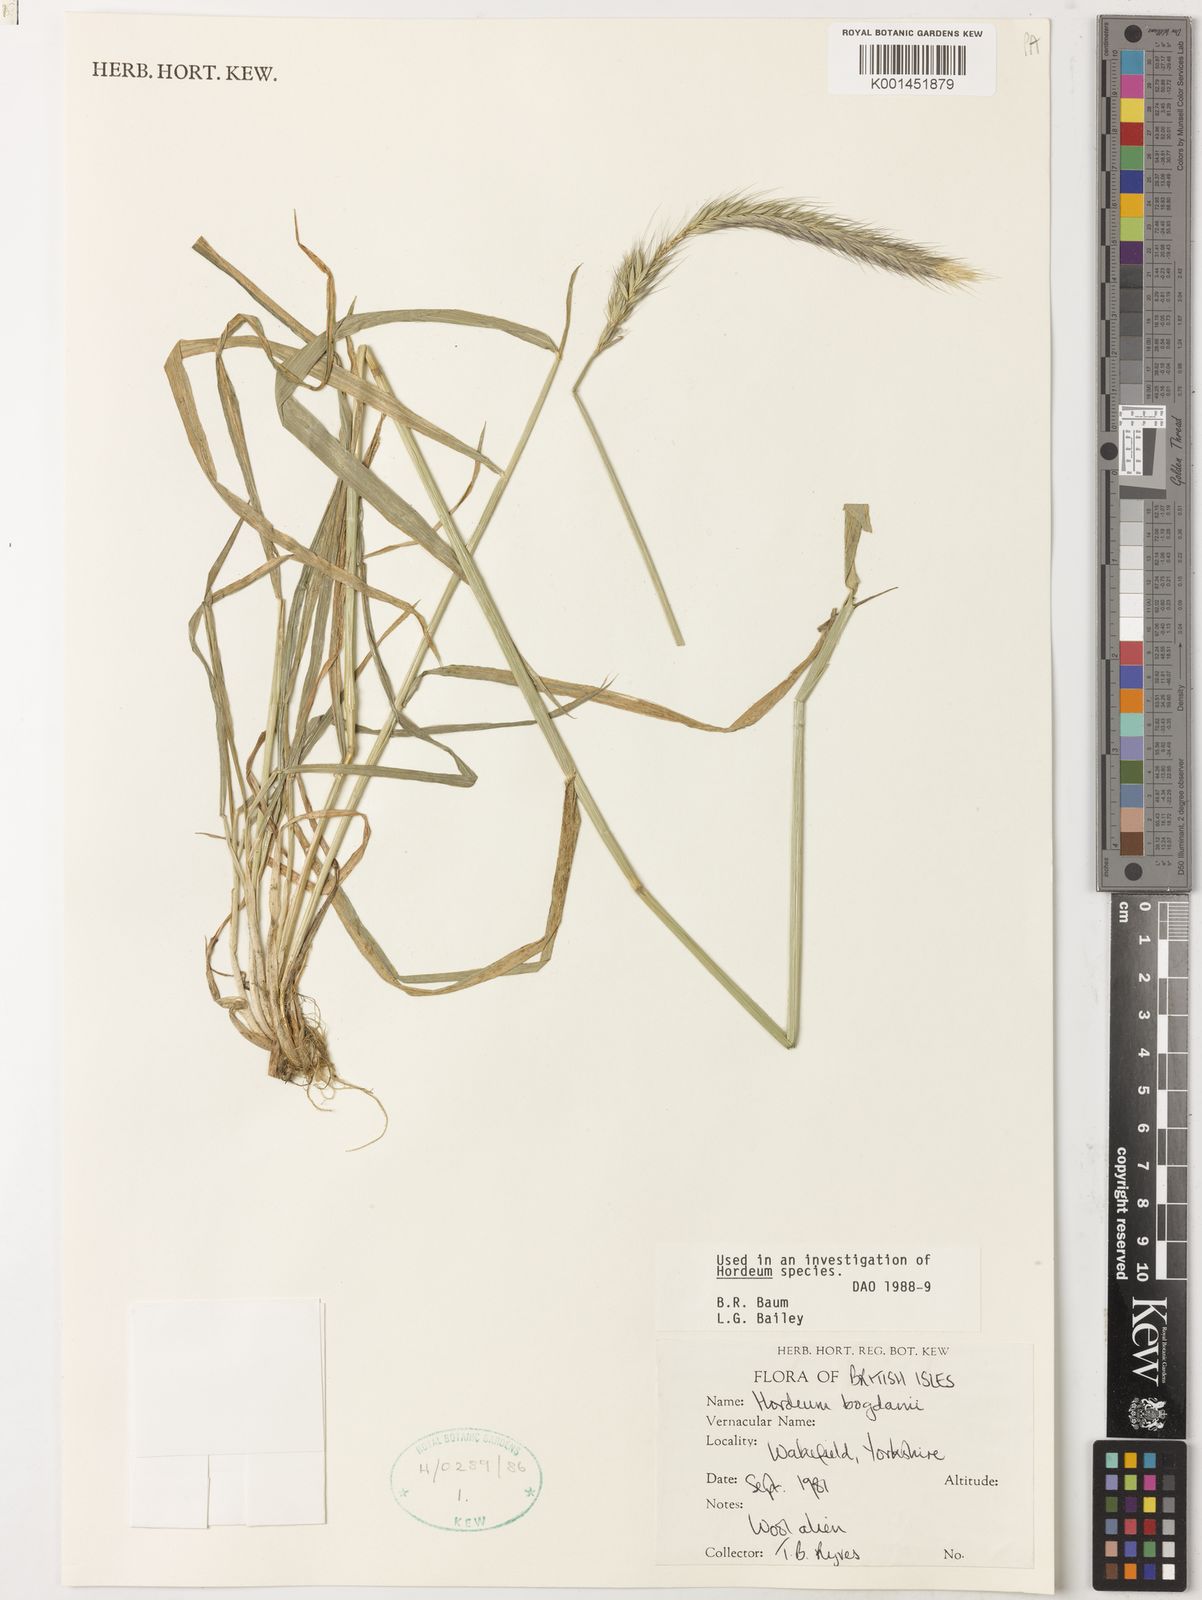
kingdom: Plantae
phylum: Tracheophyta
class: Liliopsida
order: Poales
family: Poaceae
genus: Hordeum
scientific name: Hordeum bogdanii
